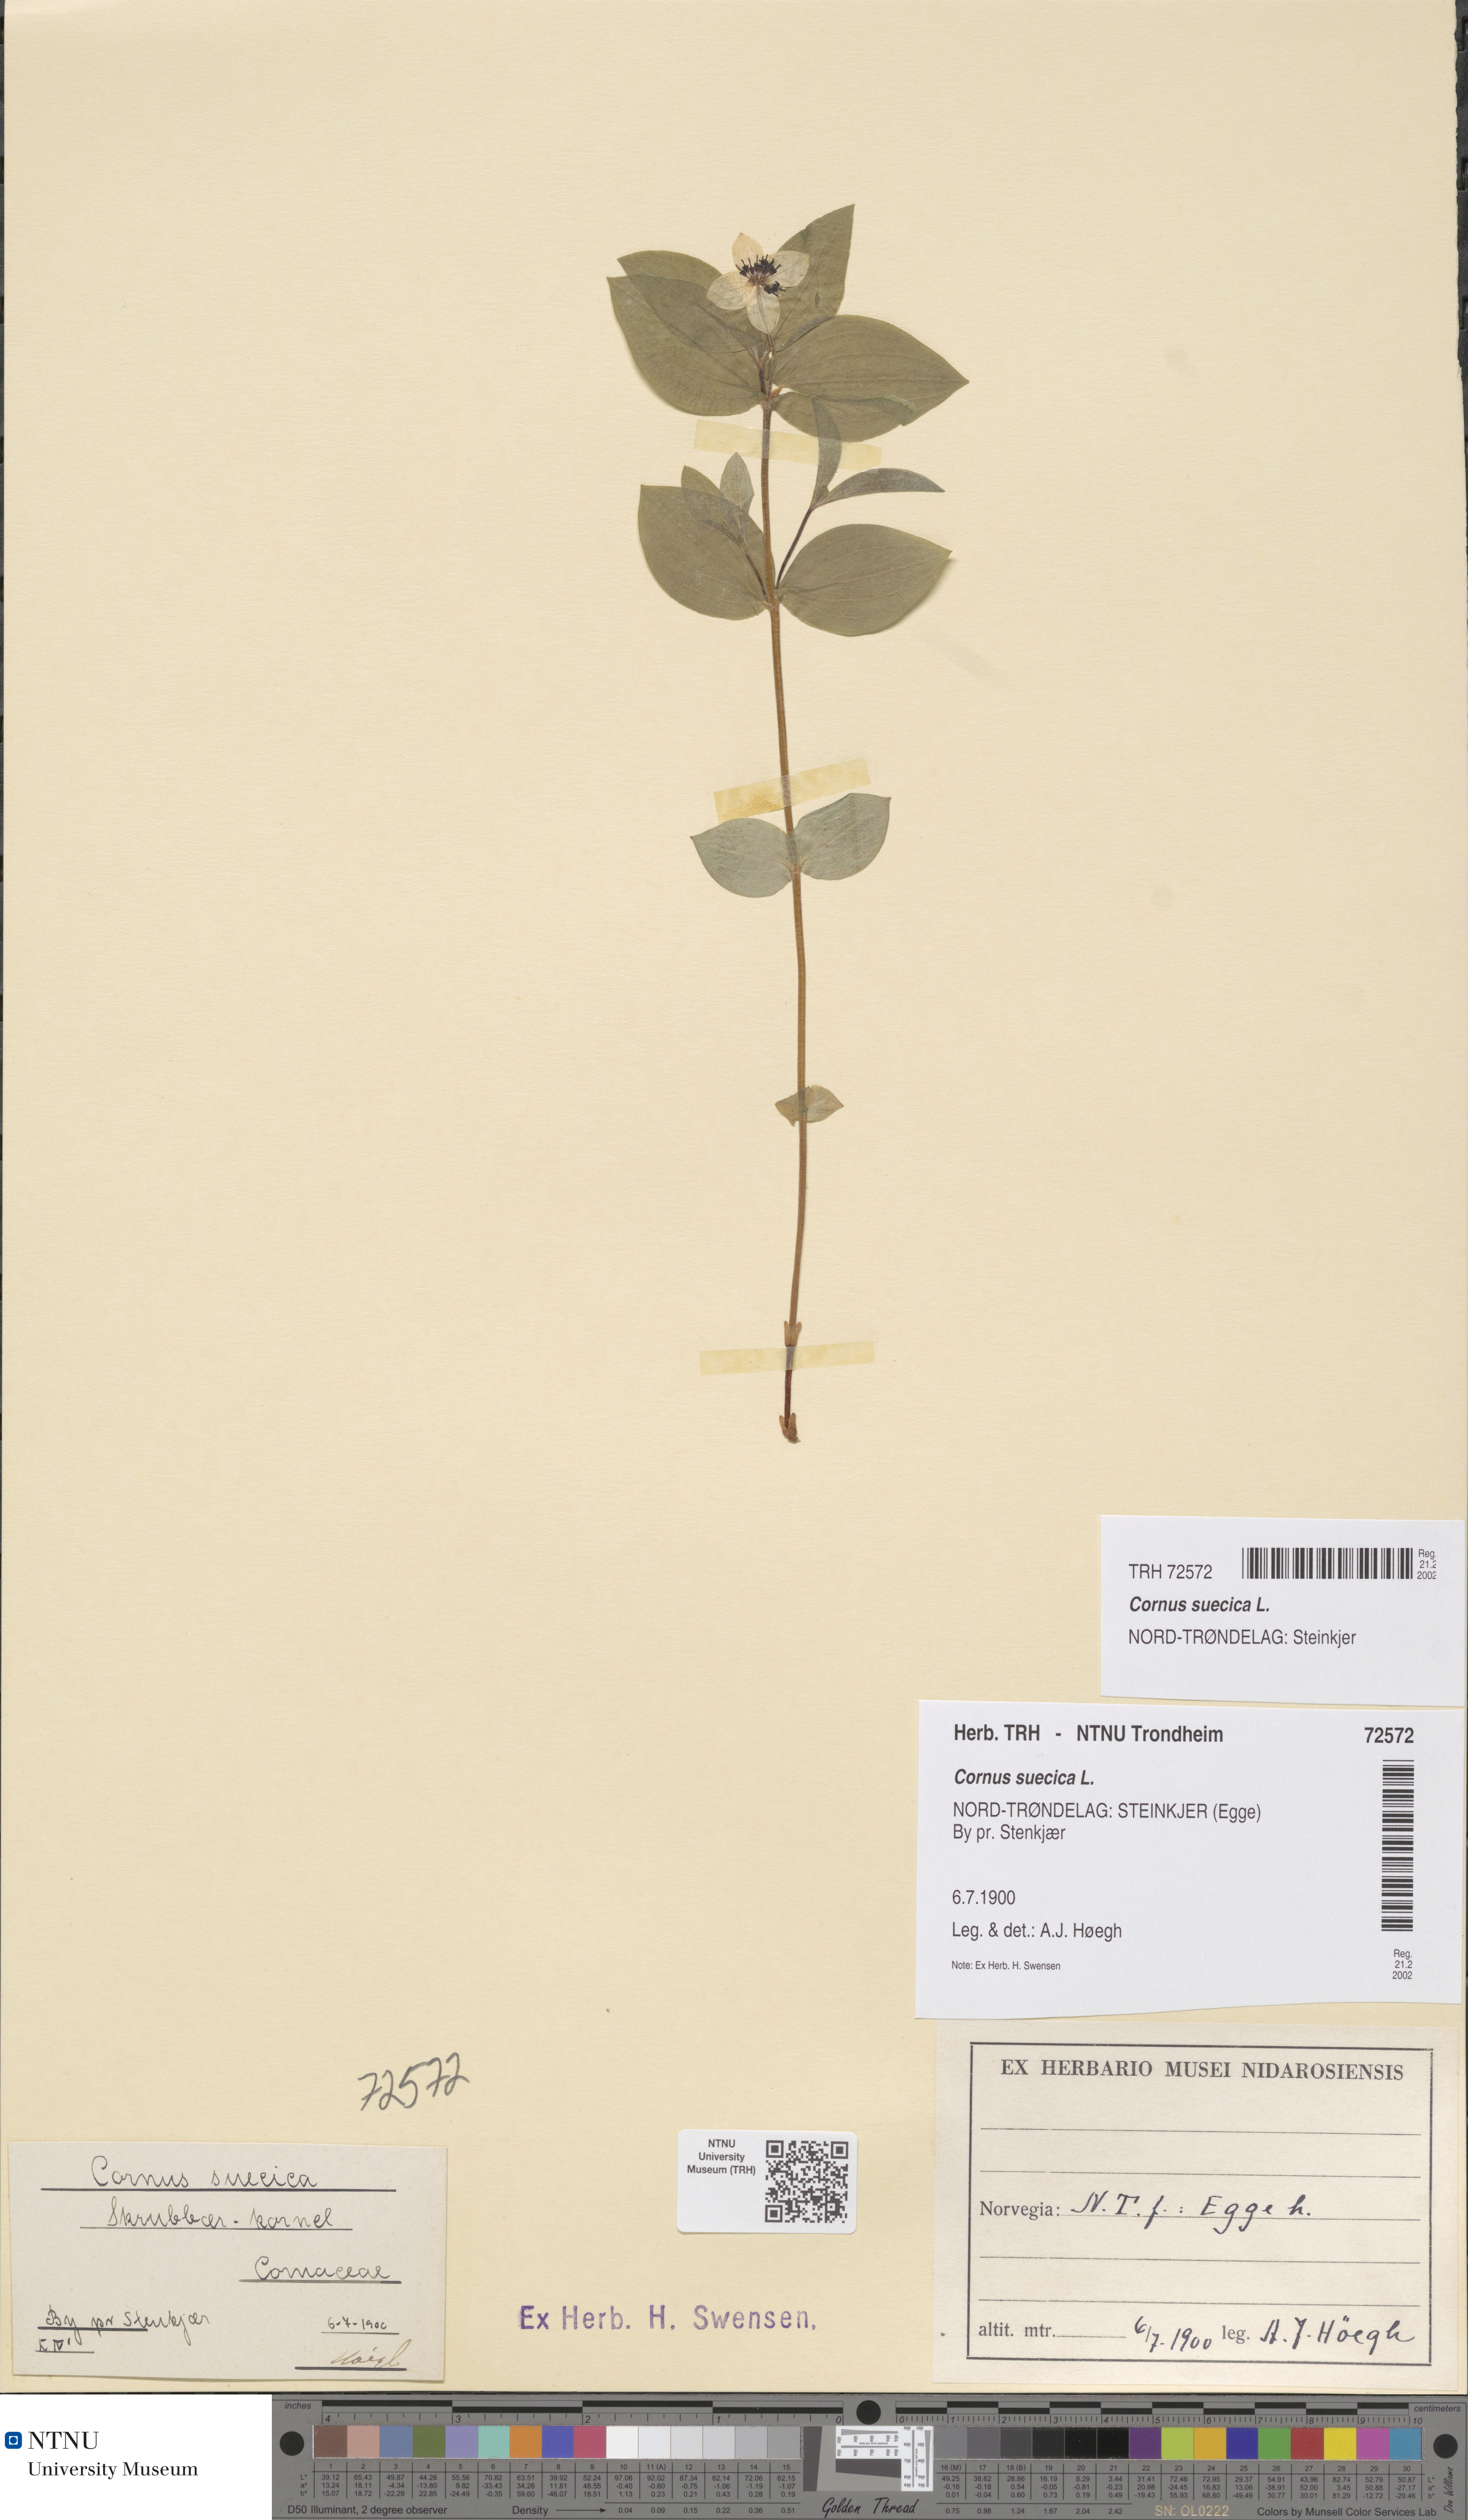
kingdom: Plantae
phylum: Tracheophyta
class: Magnoliopsida
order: Cornales
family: Cornaceae
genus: Cornus
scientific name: Cornus suecica
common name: Dwarf cornel
